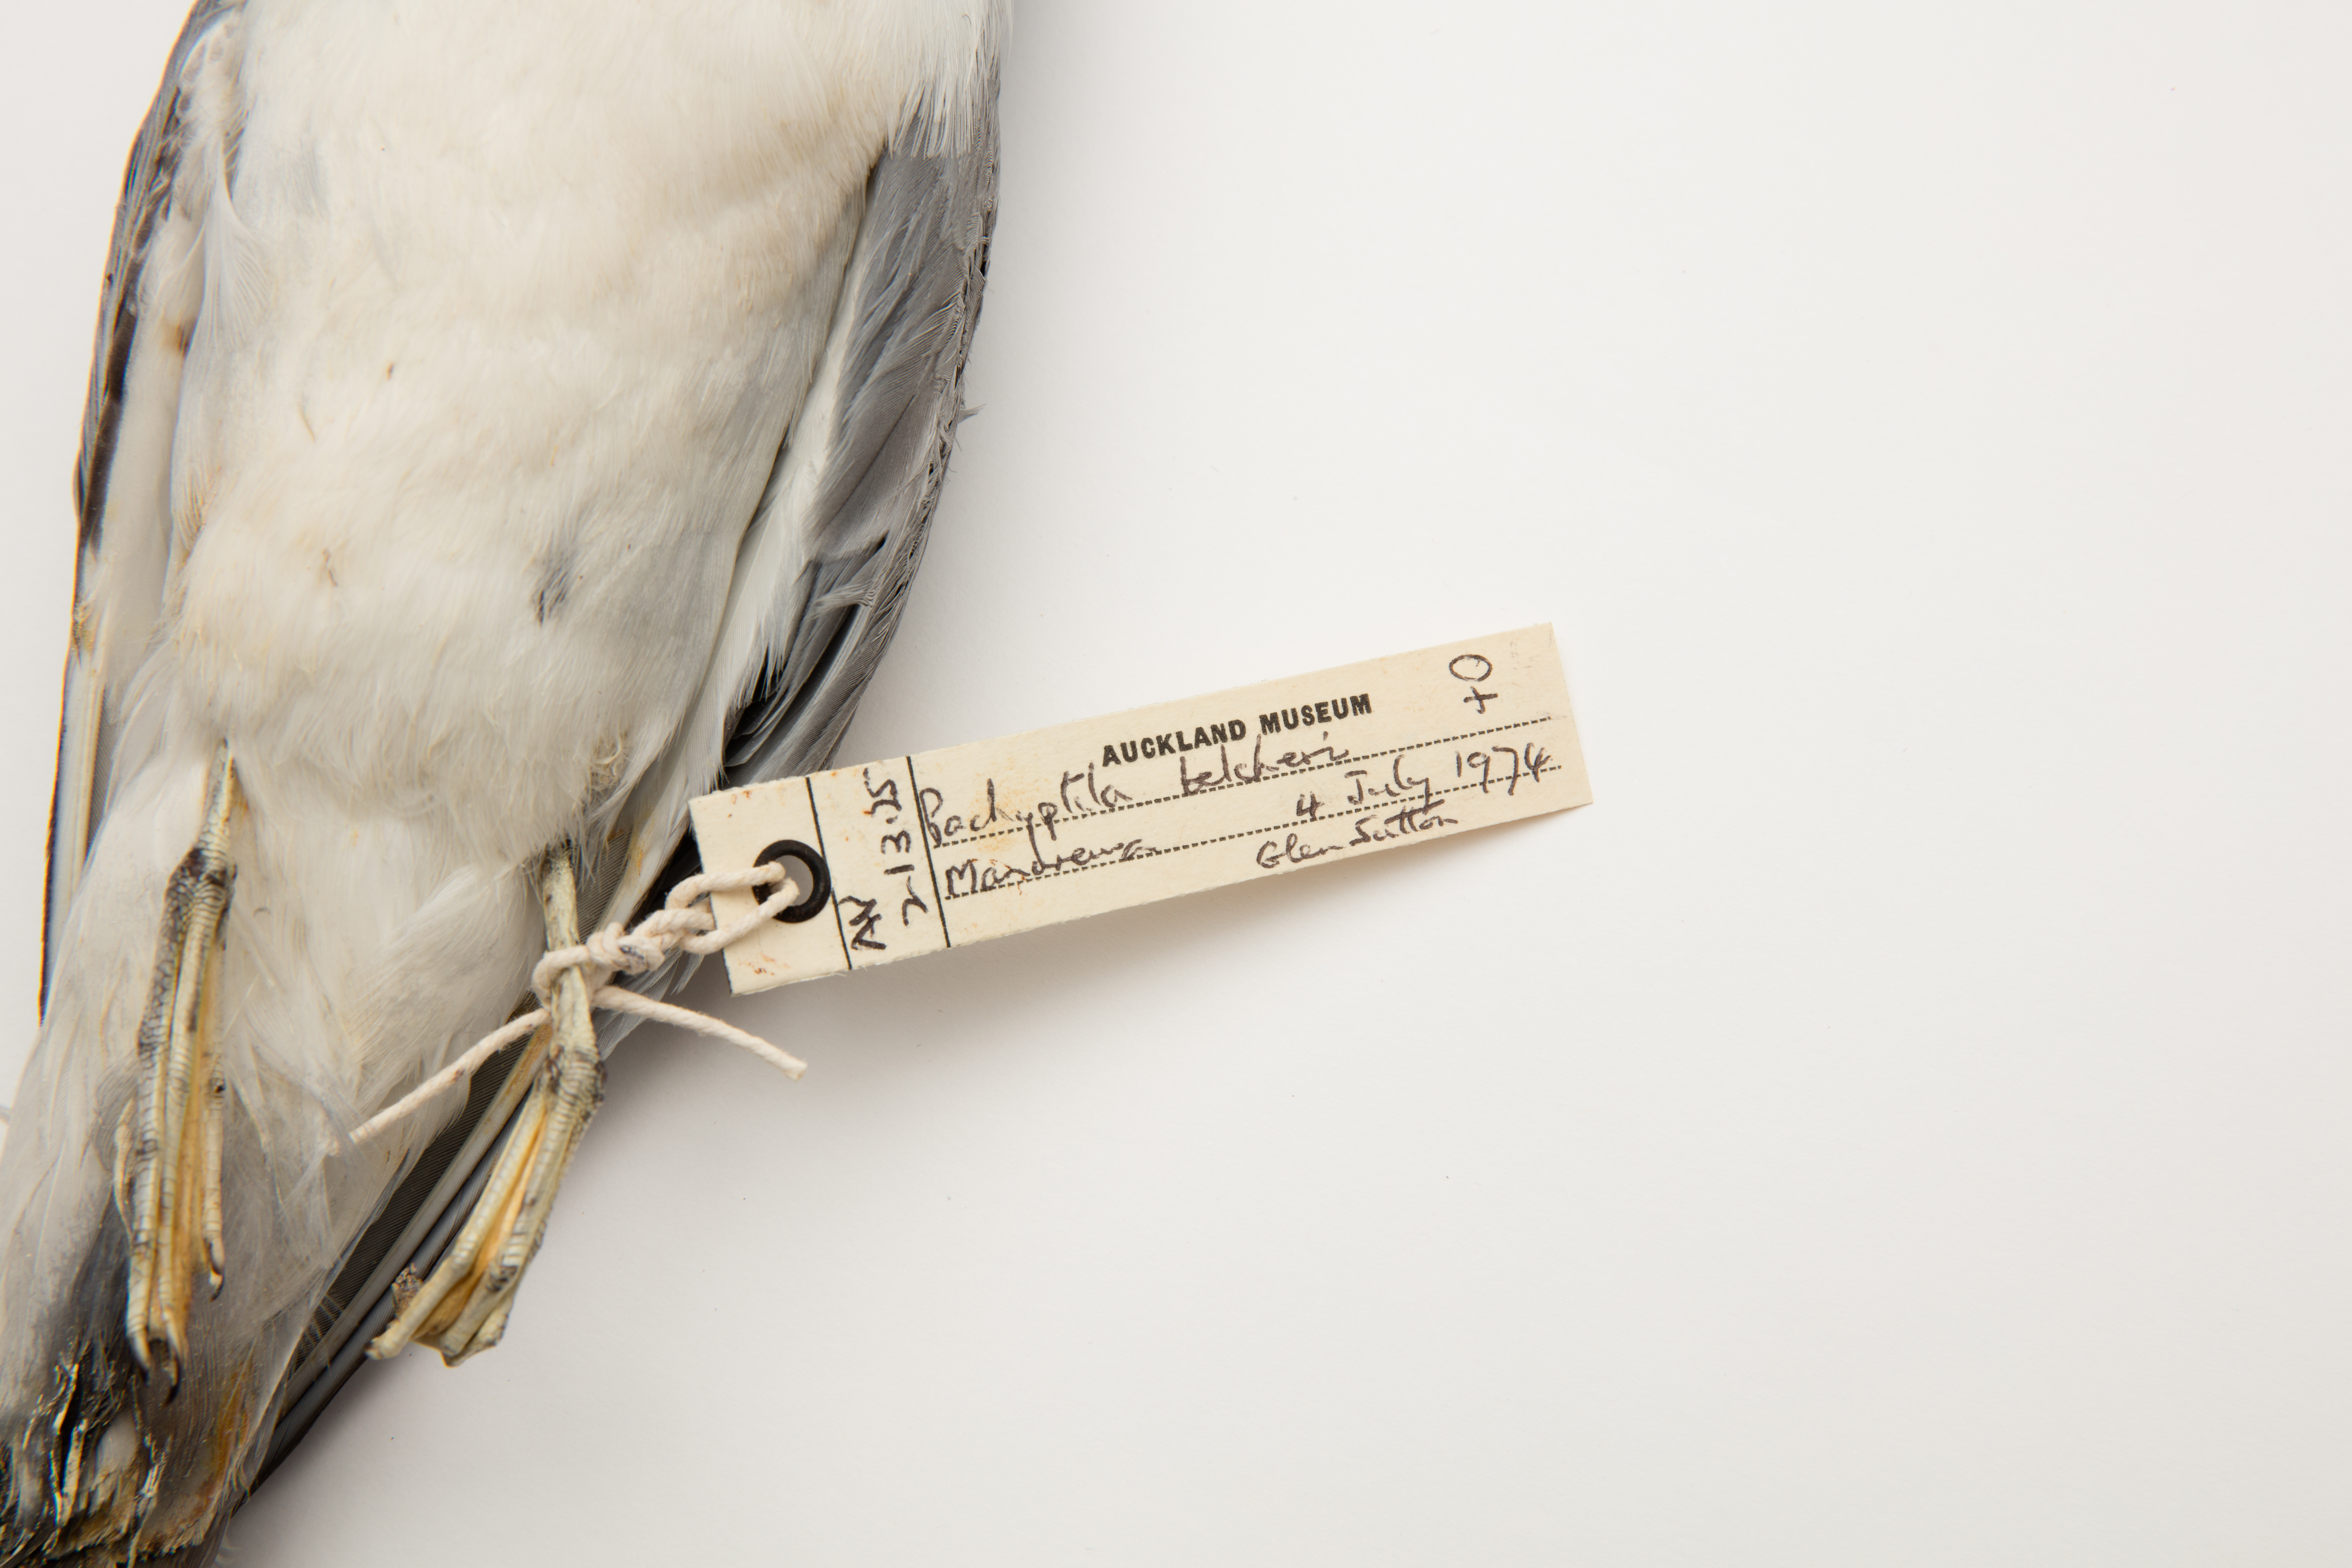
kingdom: Animalia
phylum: Chordata
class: Aves
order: Procellariiformes
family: Procellariidae
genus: Pachyptila
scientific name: Pachyptila belcheri
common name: Slender-billed prion
